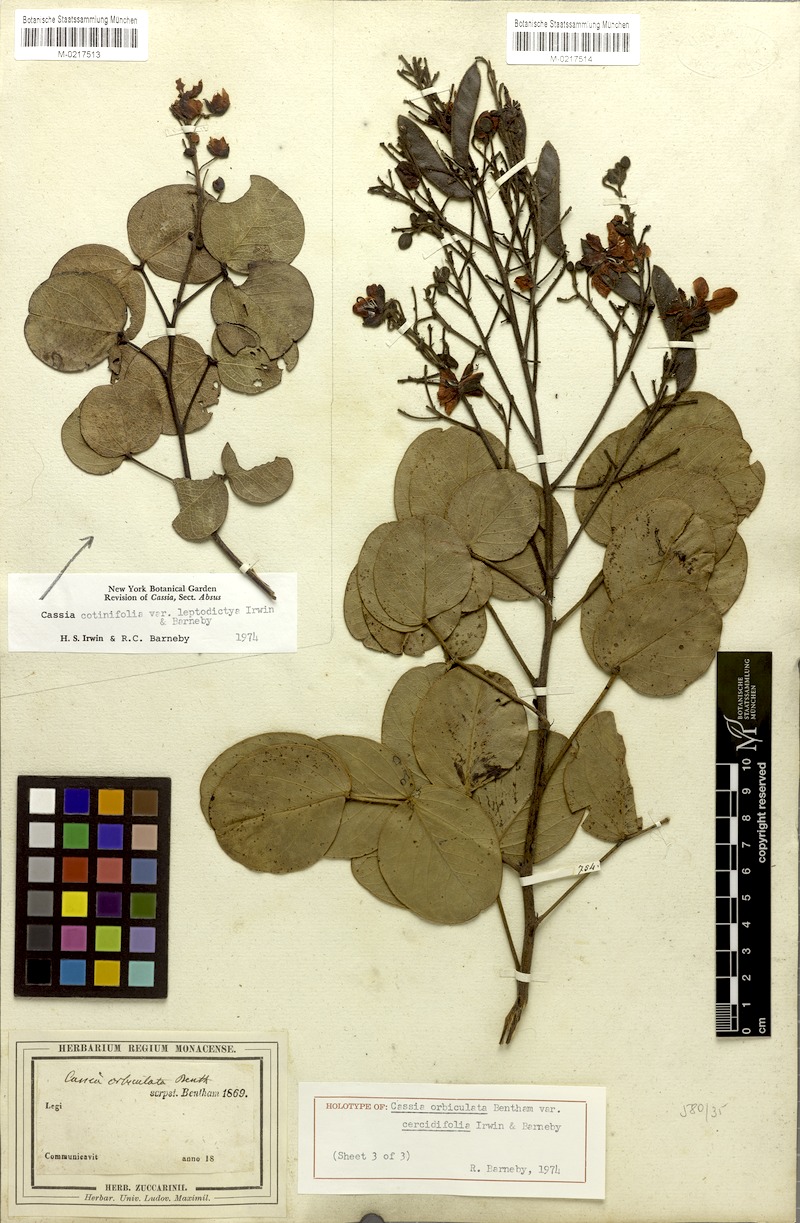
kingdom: Plantae
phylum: Tracheophyta
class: Magnoliopsida
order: Fabales
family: Fabaceae
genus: Chamaecrista
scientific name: Chamaecrista cotinifolia
